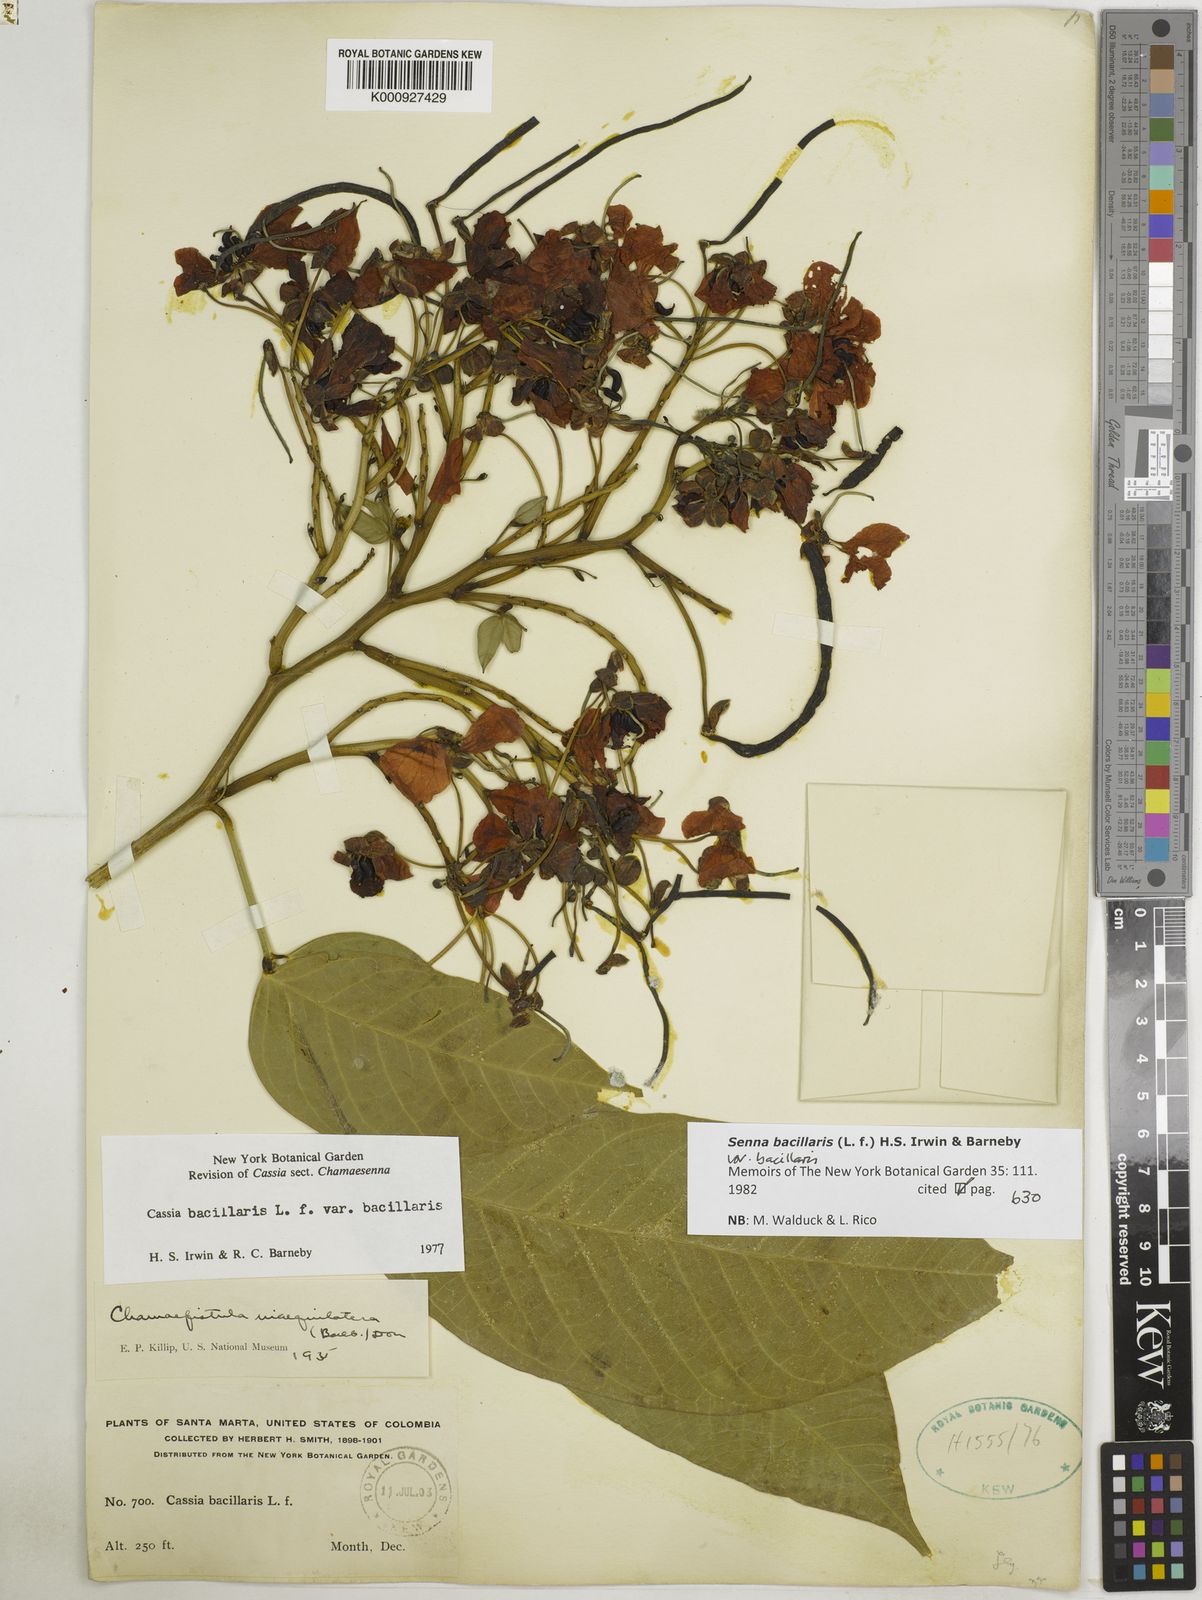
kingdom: Plantae
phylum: Tracheophyta
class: Magnoliopsida
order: Fabales
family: Fabaceae
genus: Senna
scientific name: Senna bacillaris
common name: West indian showertree
